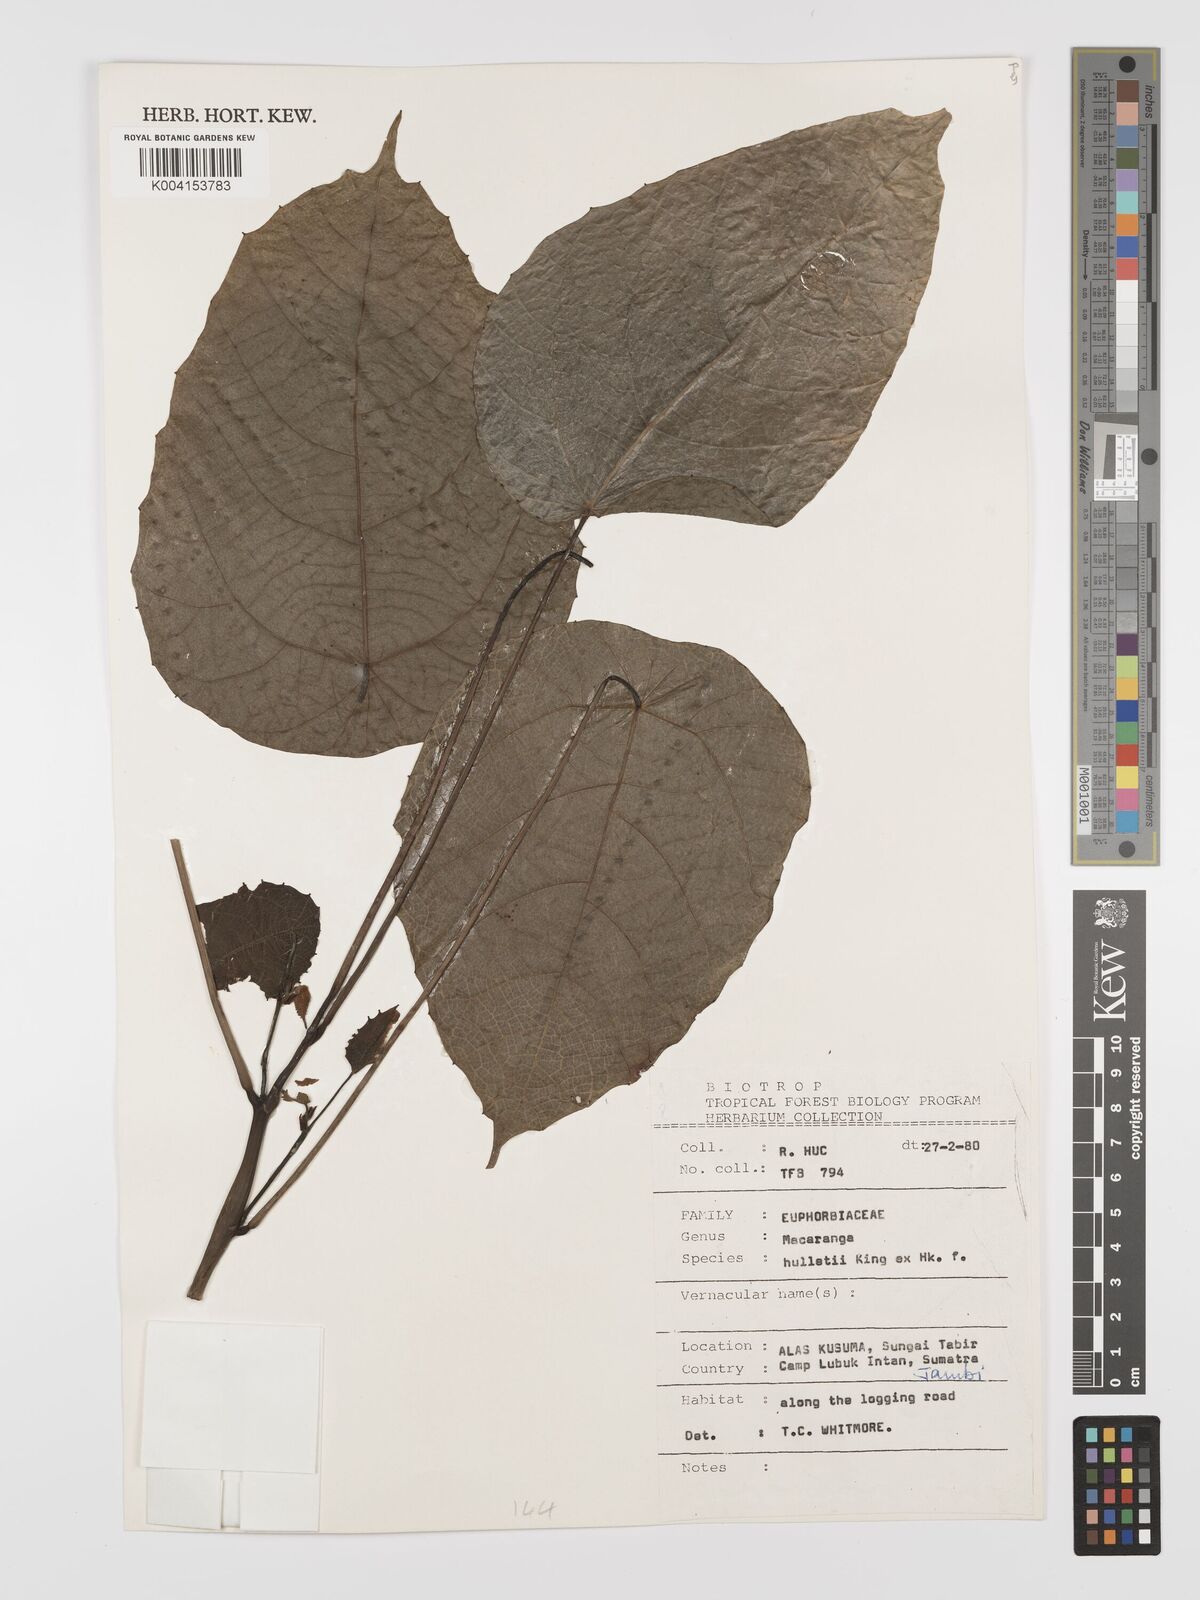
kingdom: Plantae
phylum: Tracheophyta
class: Magnoliopsida
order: Malpighiales
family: Euphorbiaceae
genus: Macaranga
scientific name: Macaranga hullettii
